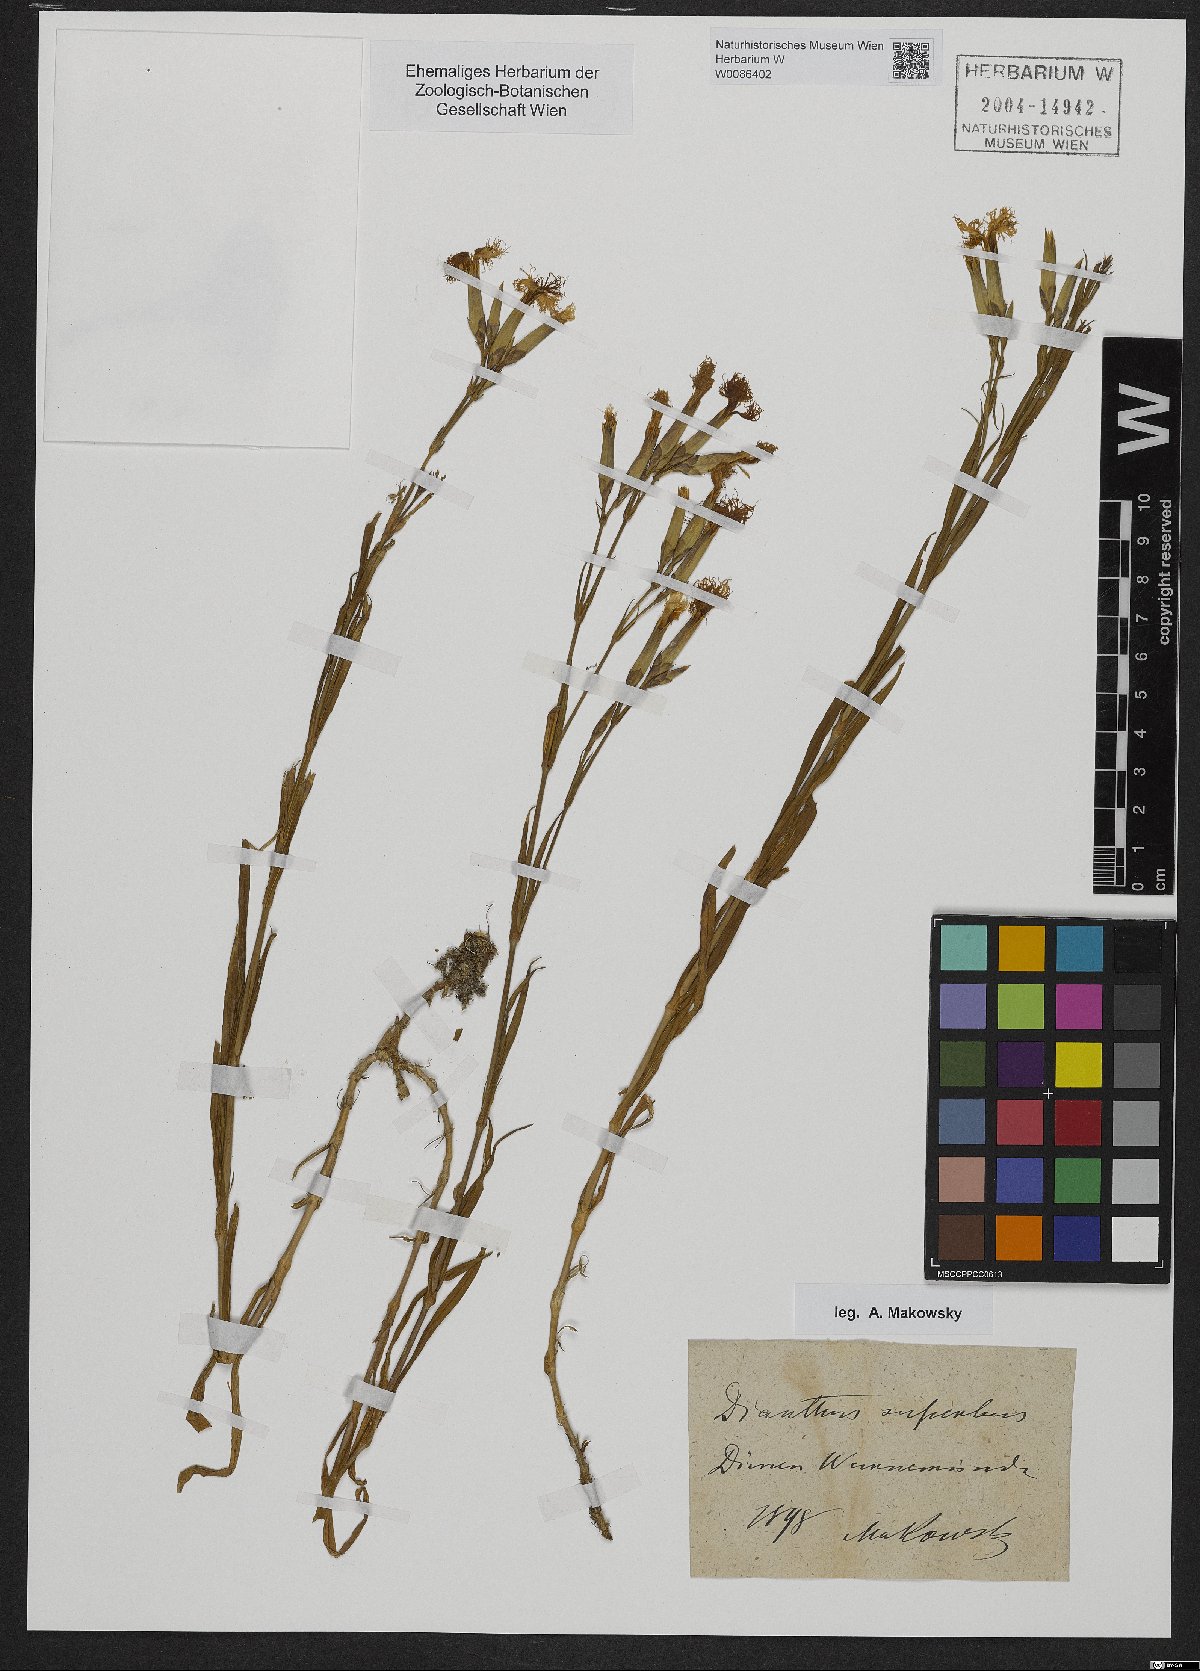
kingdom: Plantae
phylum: Tracheophyta
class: Magnoliopsida
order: Caryophyllales
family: Caryophyllaceae
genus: Dianthus
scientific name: Dianthus superbus
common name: Fringed pink
